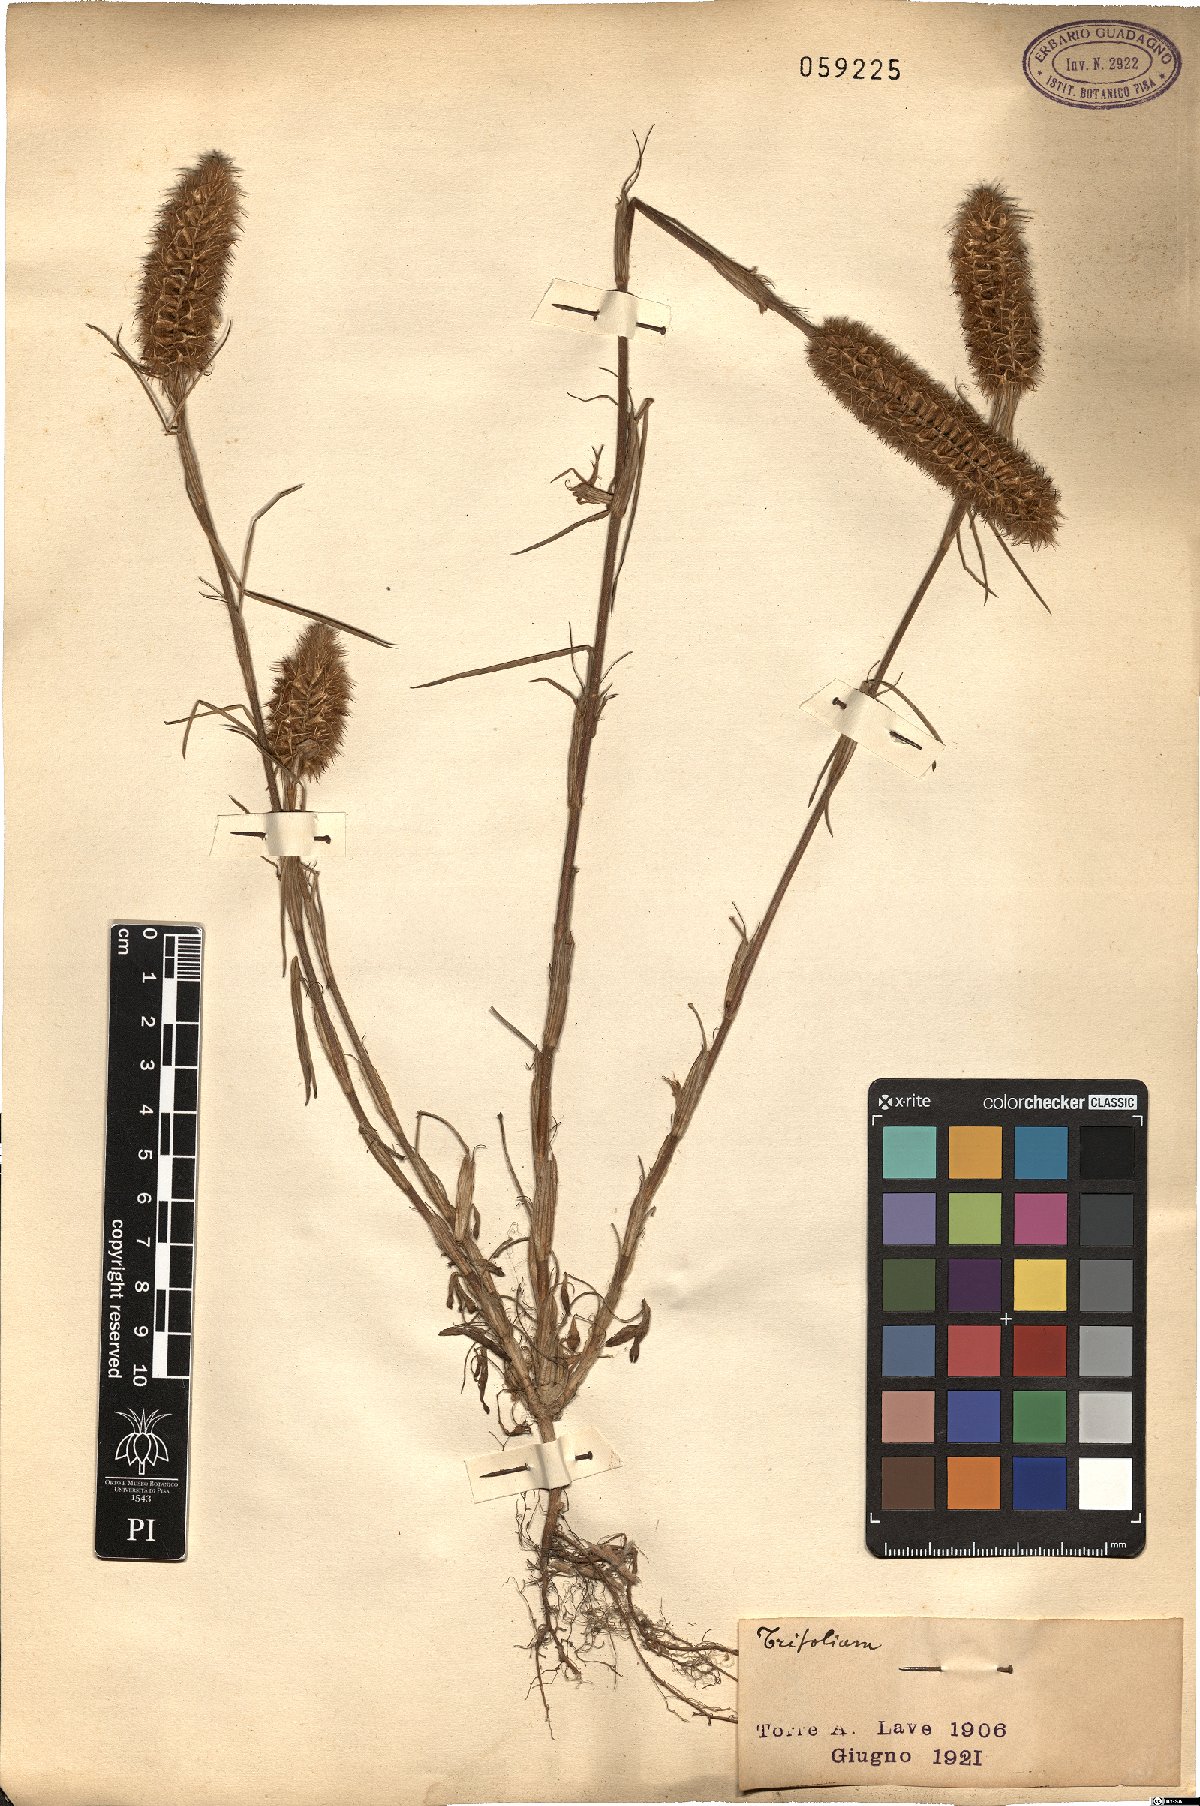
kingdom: Plantae
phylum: Tracheophyta
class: Magnoliopsida
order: Fabales
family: Fabaceae
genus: Trifolium
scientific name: Trifolium
